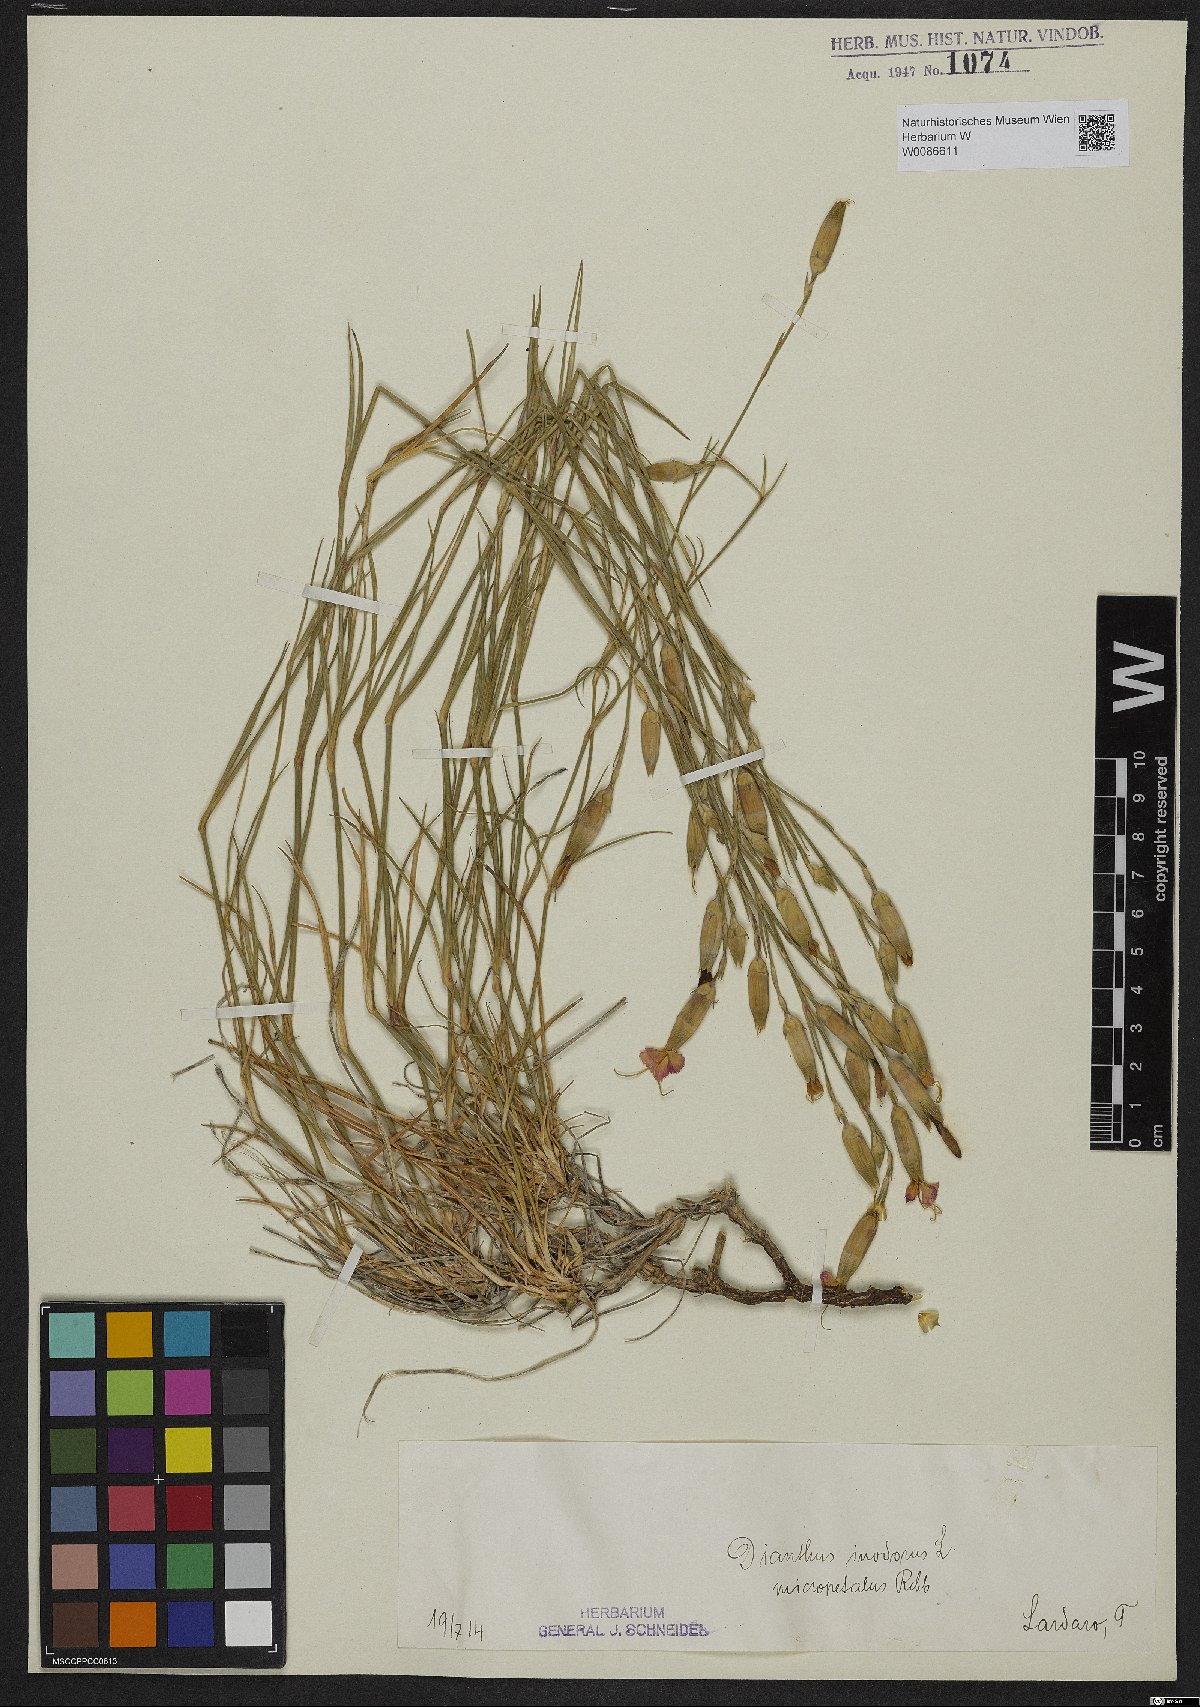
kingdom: Plantae
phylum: Tracheophyta
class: Magnoliopsida
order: Caryophyllales
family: Caryophyllaceae
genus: Dianthus
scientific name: Dianthus sylvestris
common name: Wood pink
